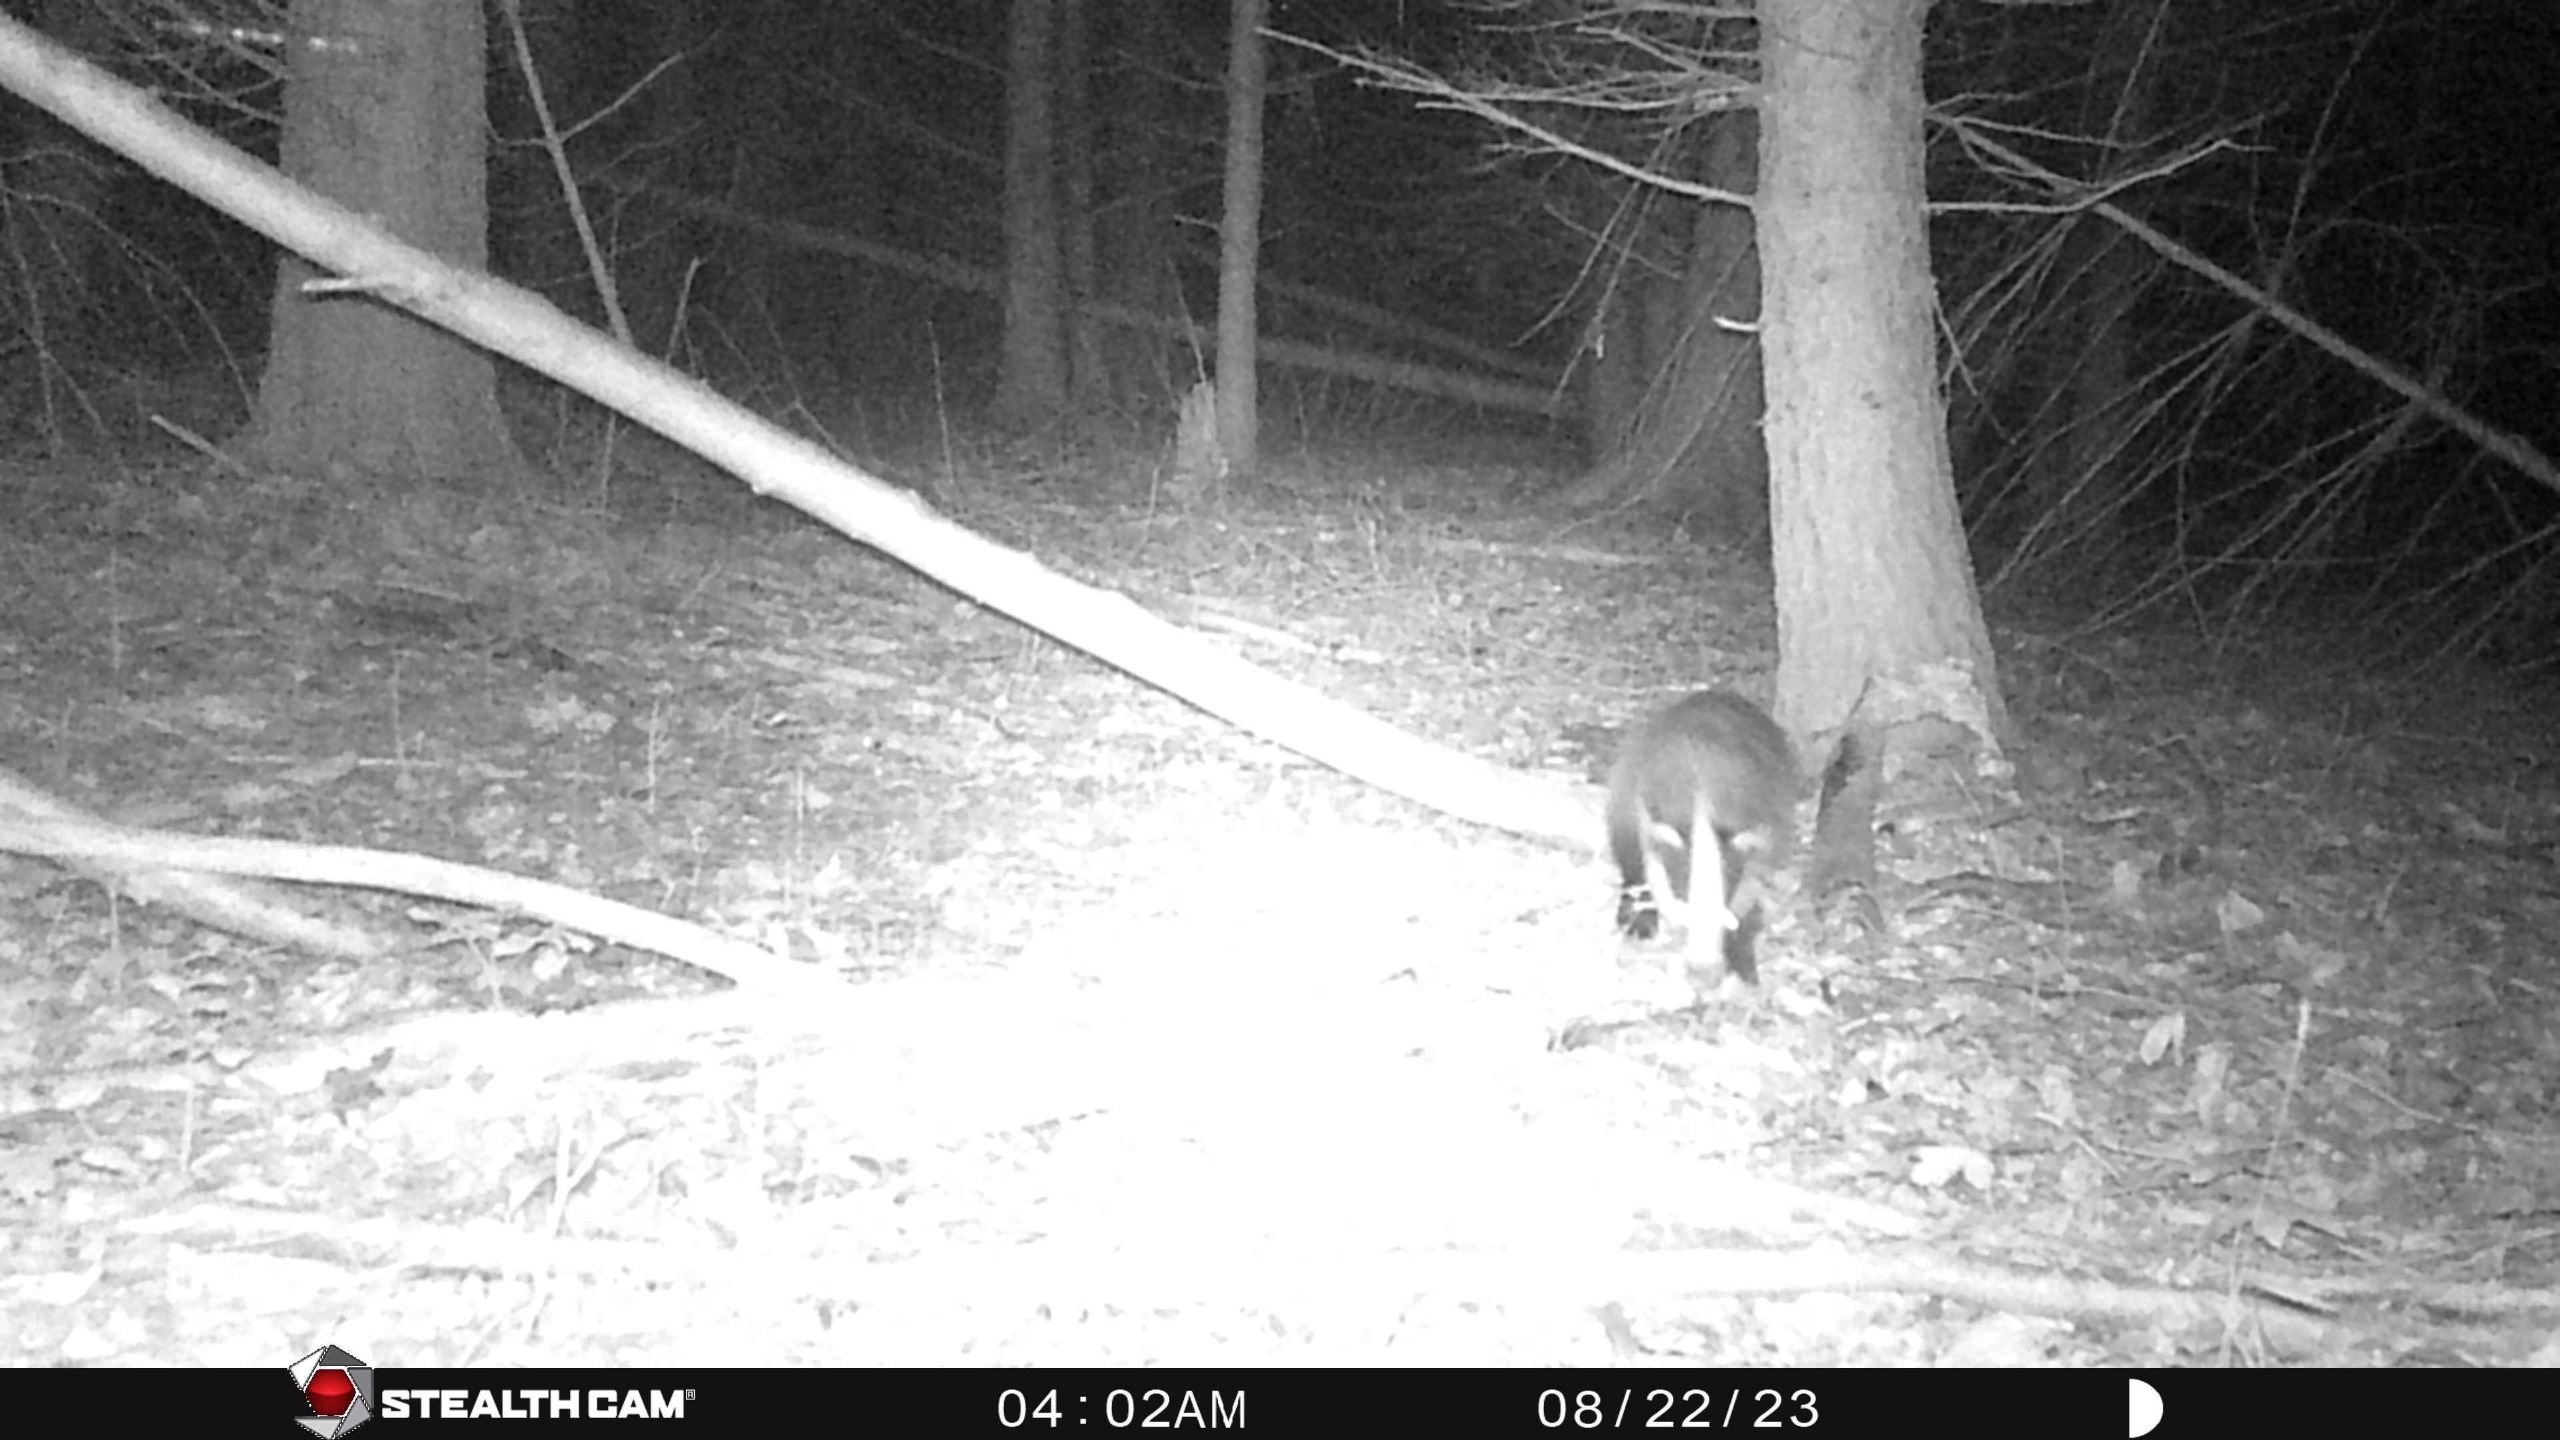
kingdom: Animalia
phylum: Chordata
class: Mammalia
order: Carnivora
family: Mustelidae
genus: Meles
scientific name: Meles meles
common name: Grævling
